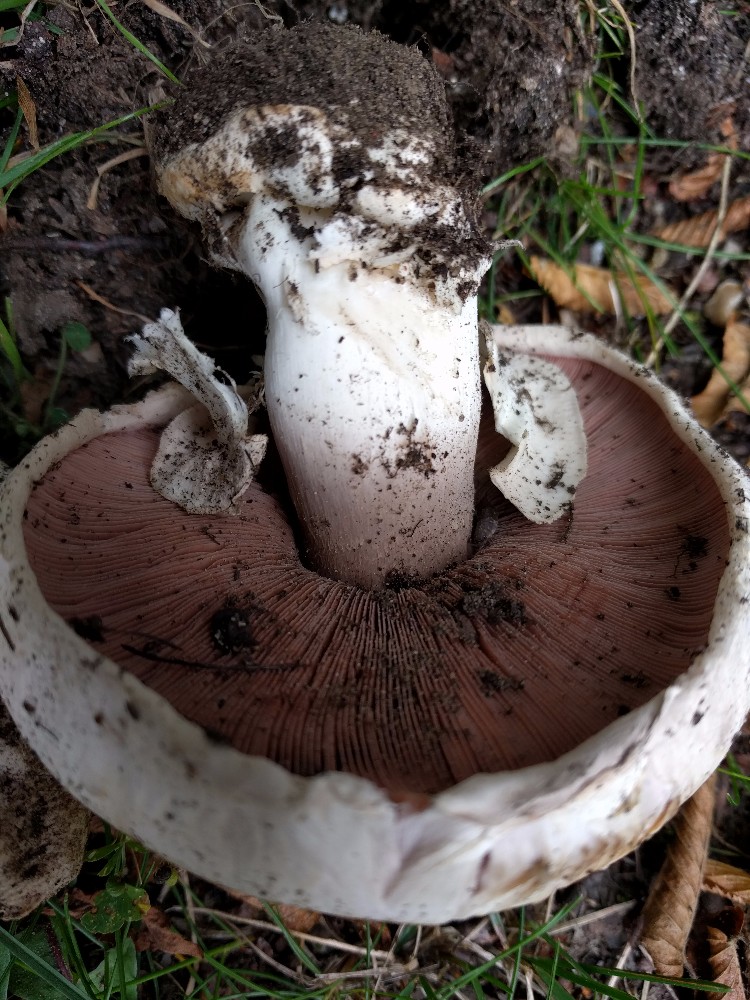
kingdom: Fungi
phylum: Basidiomycota
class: Agaricomycetes
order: Agaricales
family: Agaricaceae
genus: Agaricus
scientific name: Agaricus bitorquis
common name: vej-champignon
